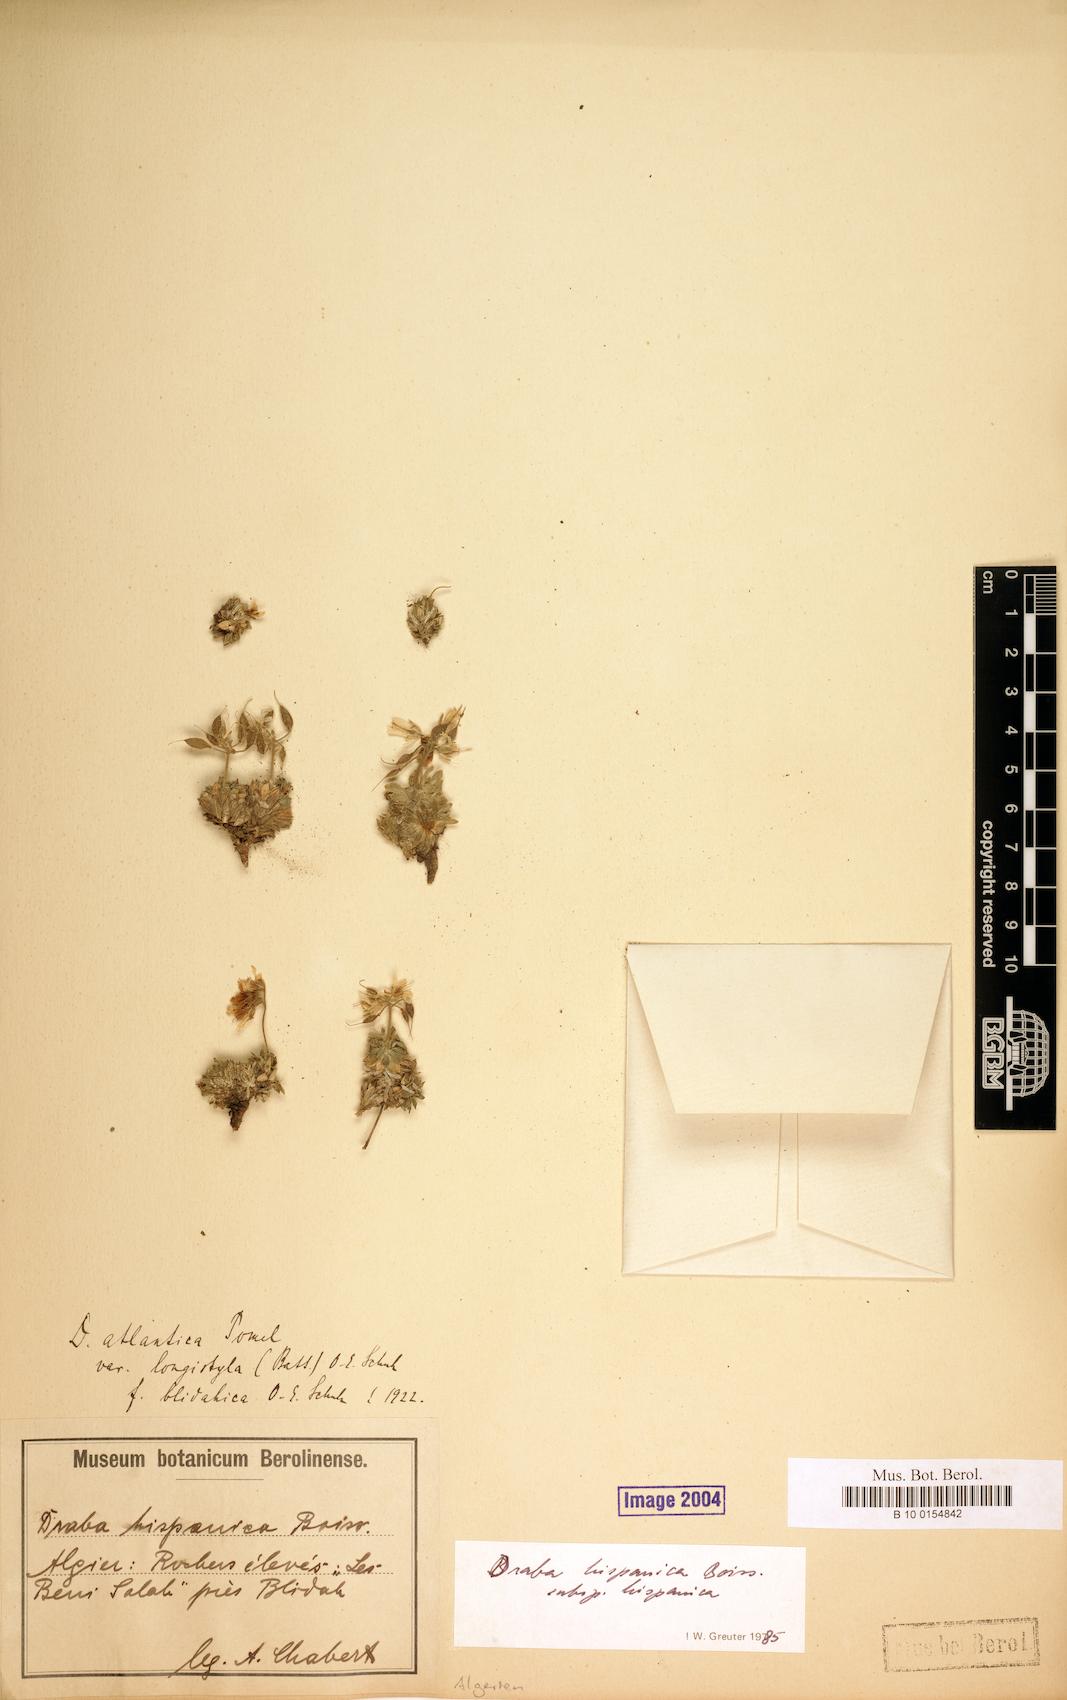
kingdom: Plantae
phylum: Tracheophyta
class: Magnoliopsida
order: Brassicales
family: Brassicaceae
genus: Draba
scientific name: Draba hispanica
